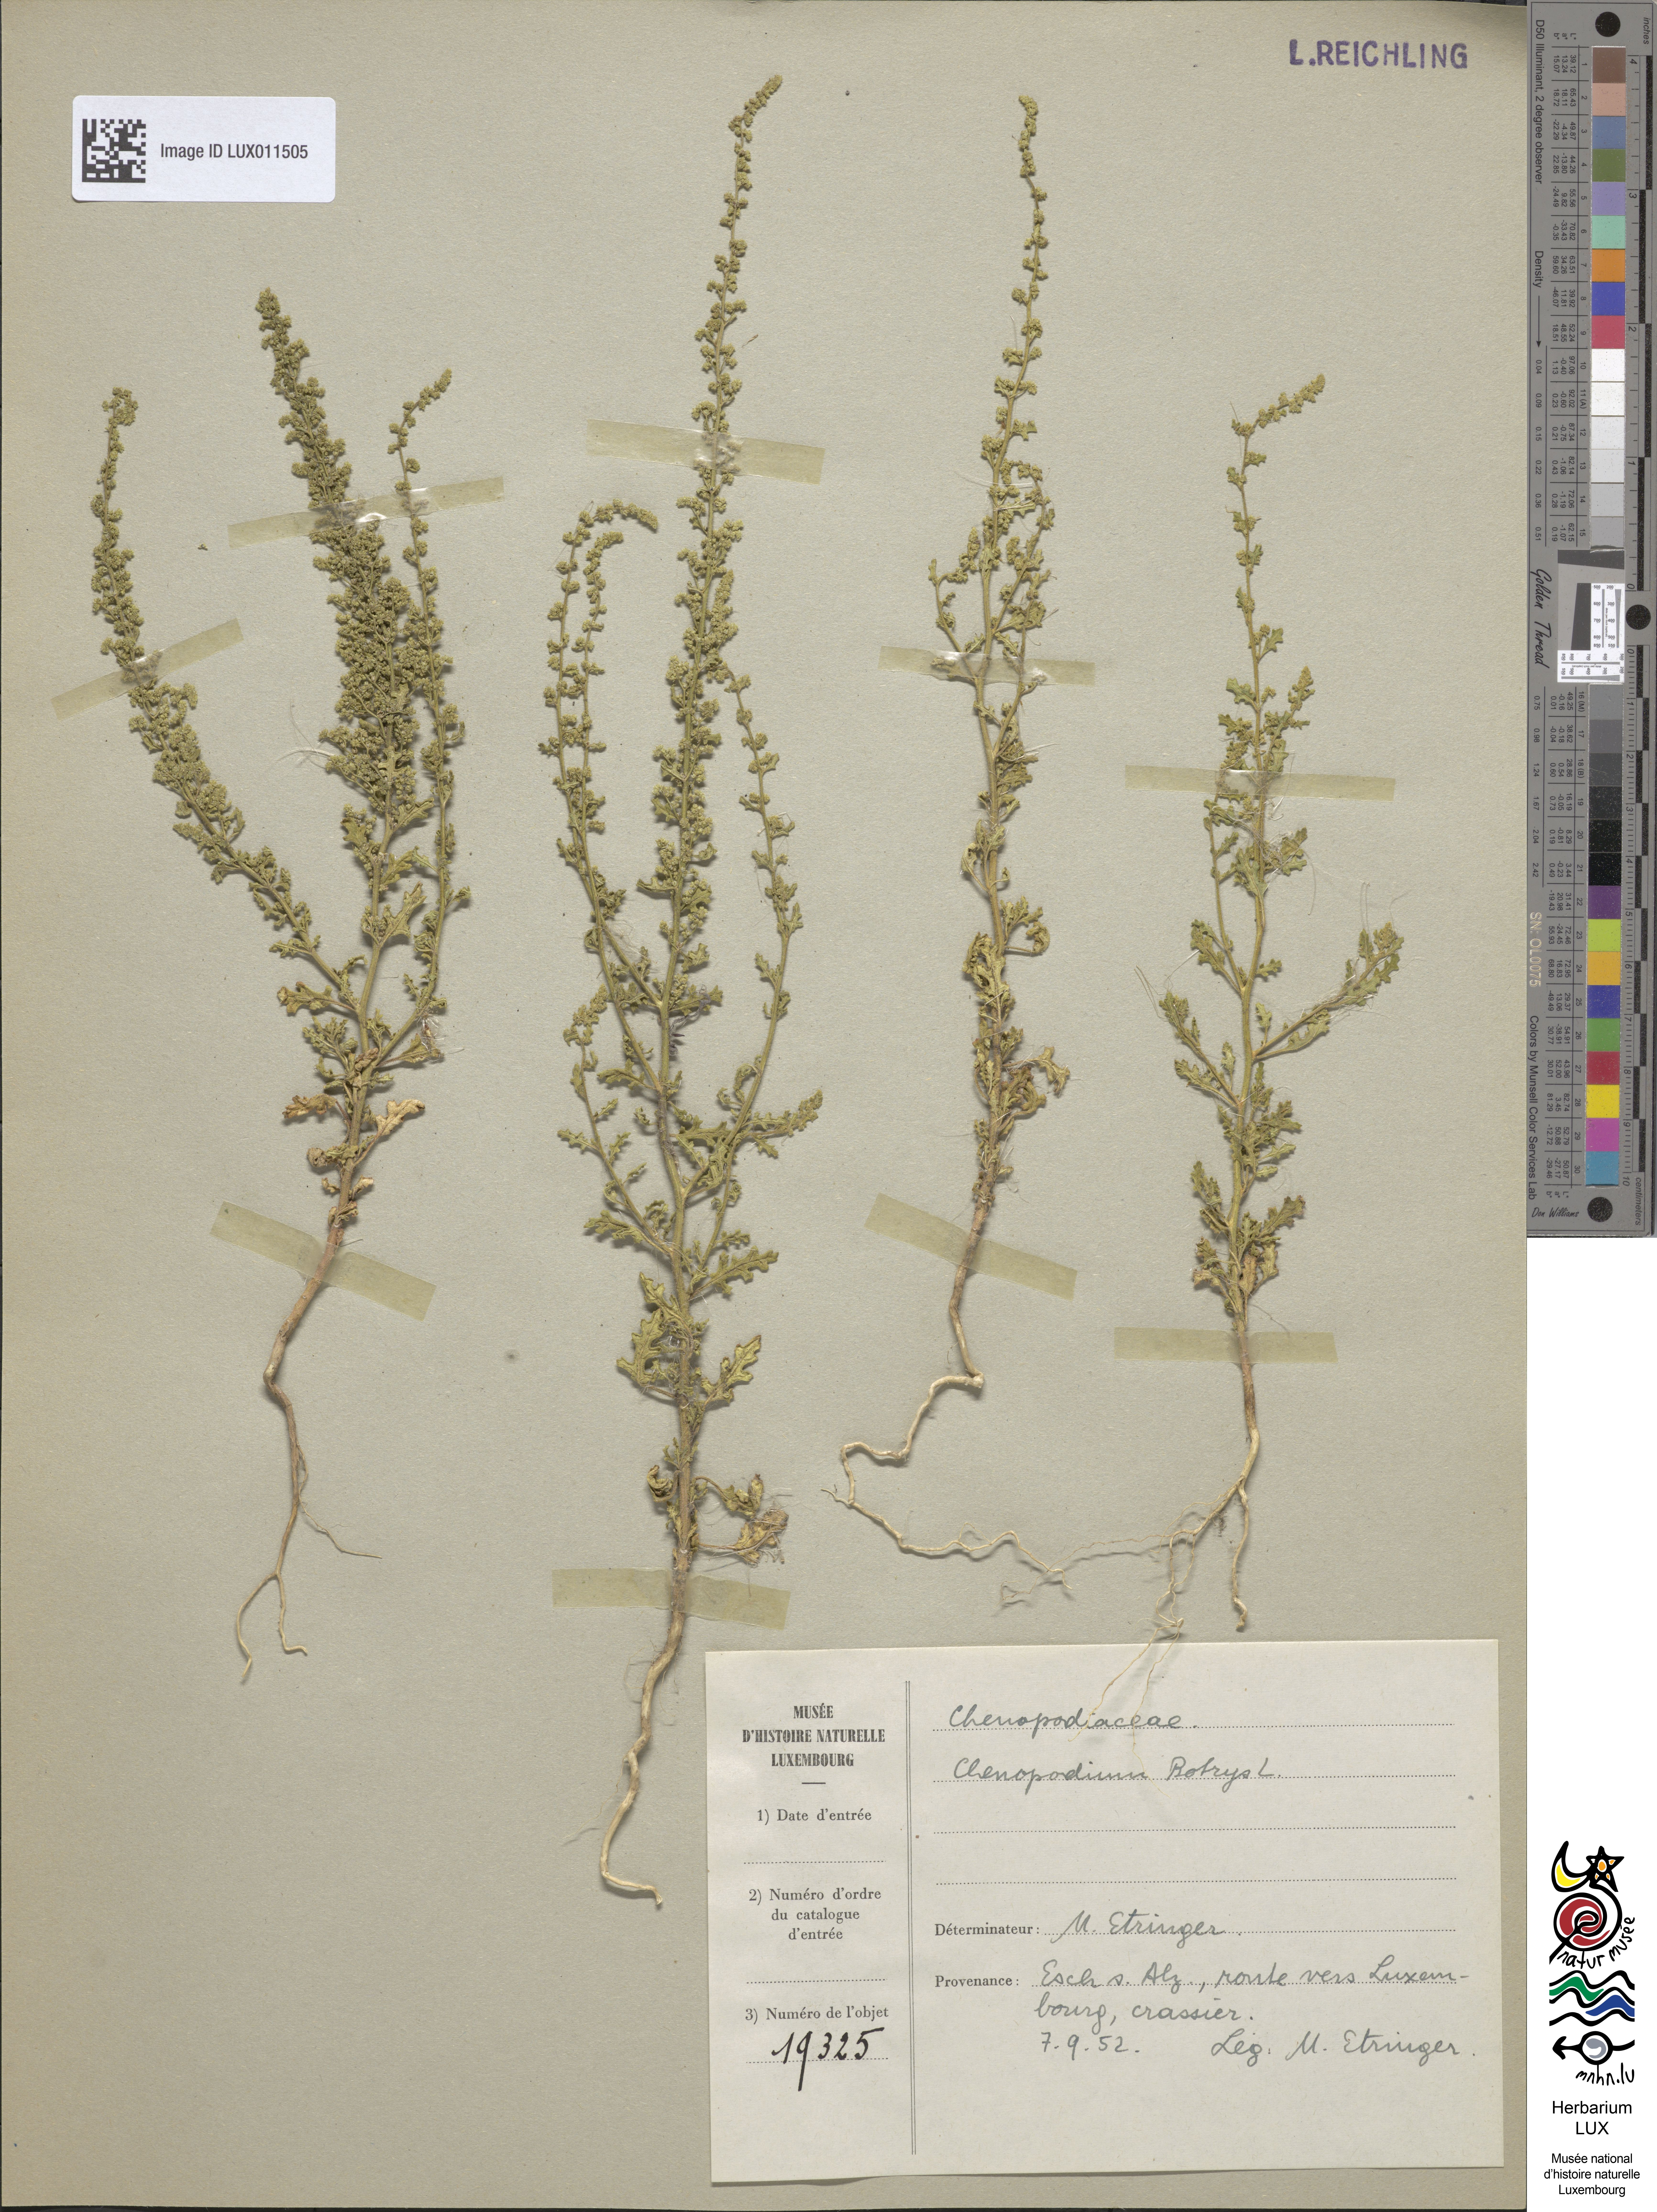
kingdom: Plantae
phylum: Tracheophyta
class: Magnoliopsida
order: Caryophyllales
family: Amaranthaceae
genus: Dysphania
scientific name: Dysphania botrys
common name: Feather-geranium
